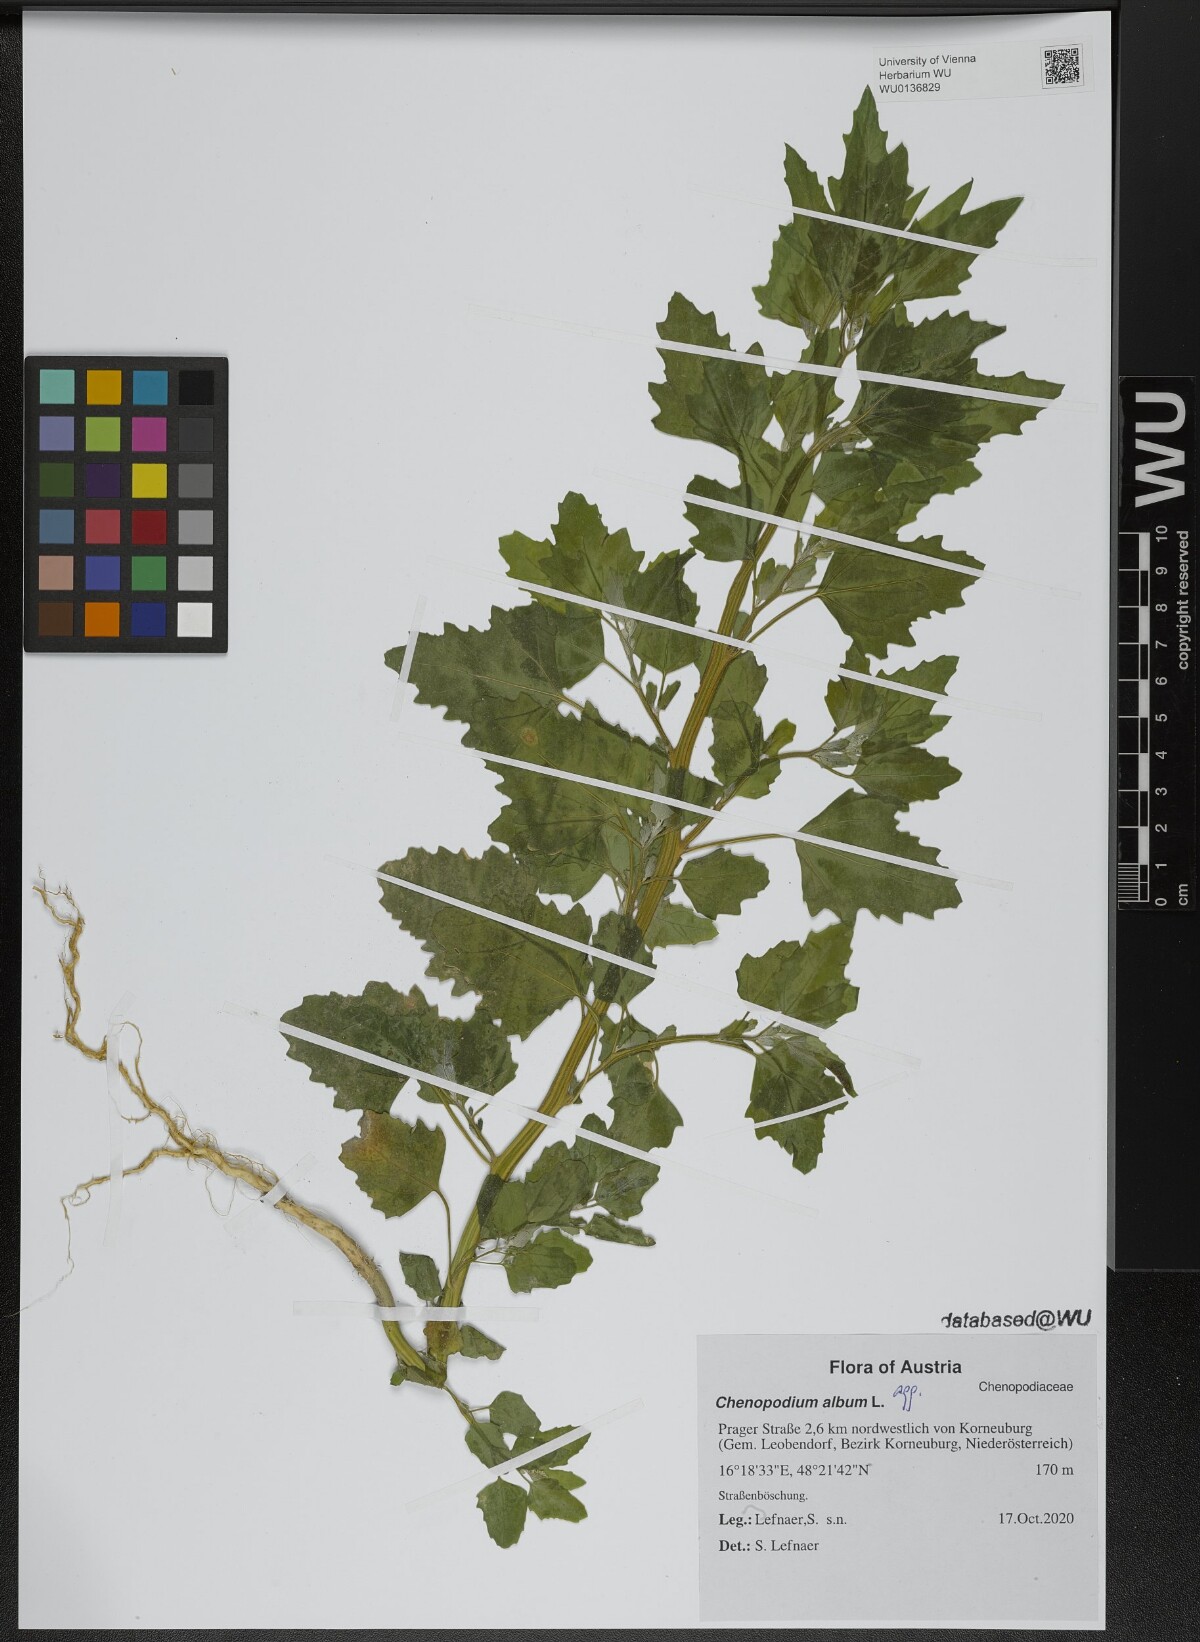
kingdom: Plantae
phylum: Tracheophyta
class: Magnoliopsida
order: Caryophyllales
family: Amaranthaceae
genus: Chenopodium
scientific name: Chenopodium album
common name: Fat-hen
